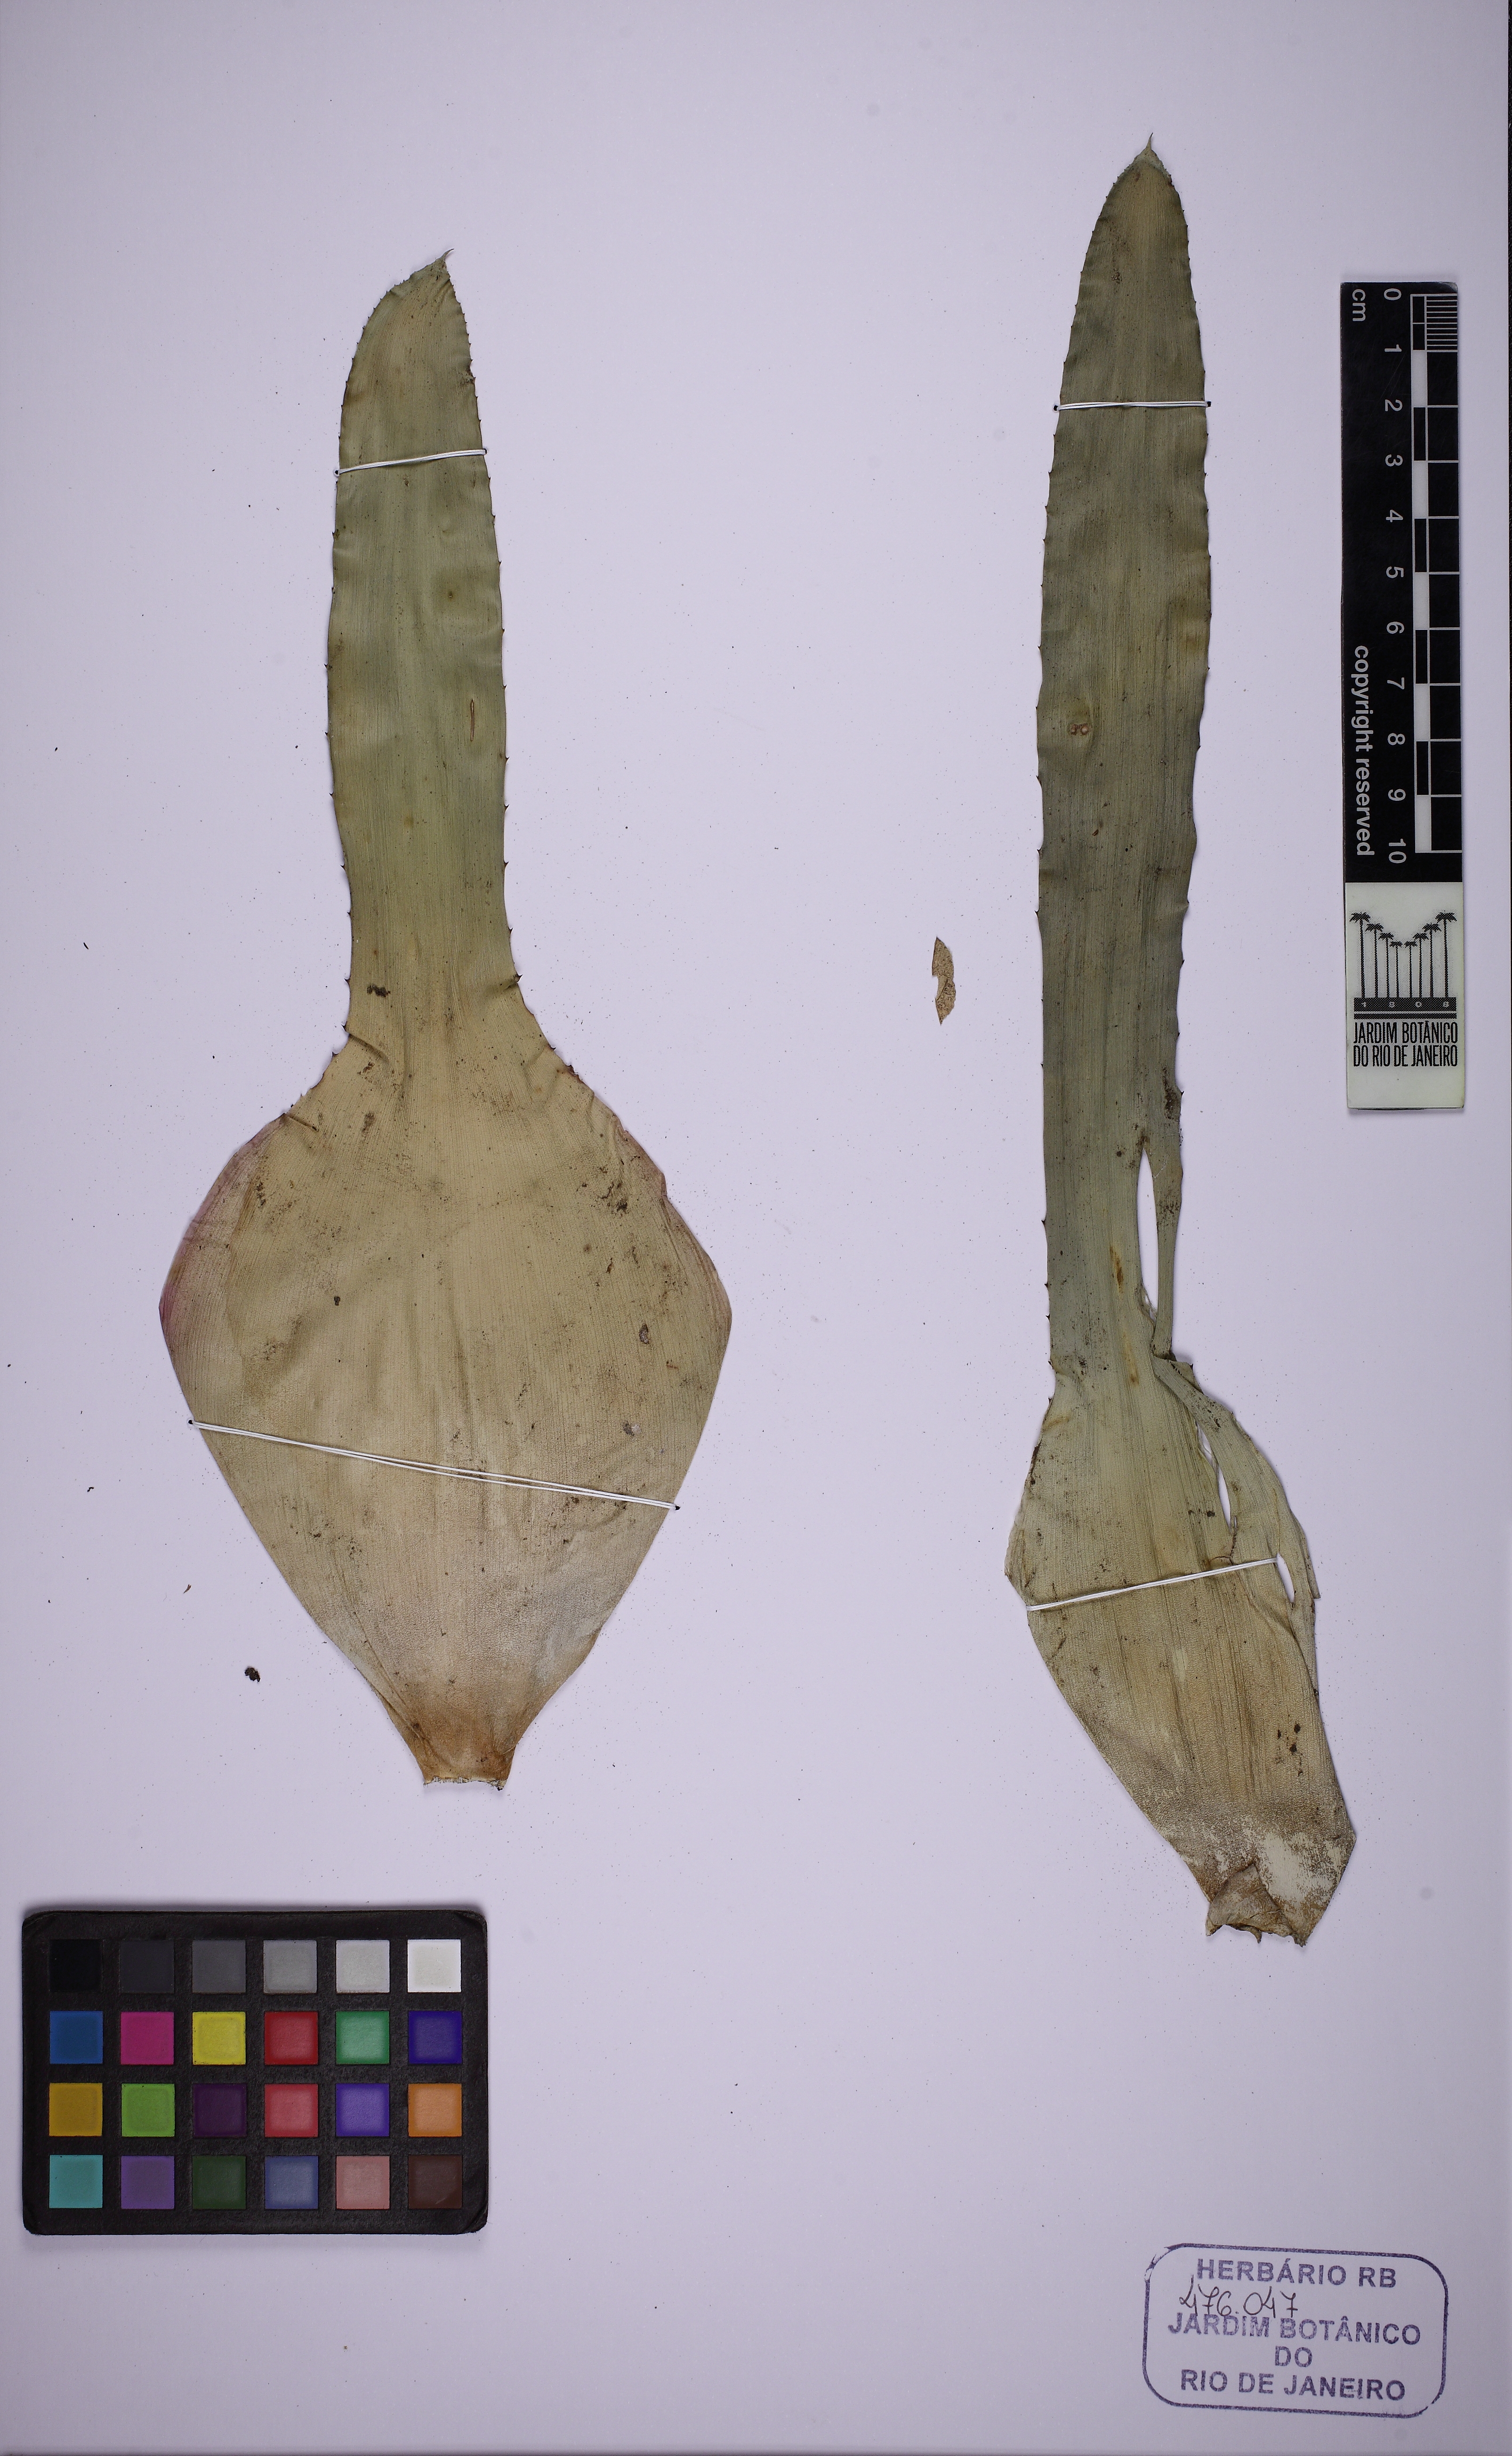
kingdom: Plantae
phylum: Tracheophyta
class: Liliopsida
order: Poales
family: Bromeliaceae
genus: Neoregelia
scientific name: Neoregelia farinosa
